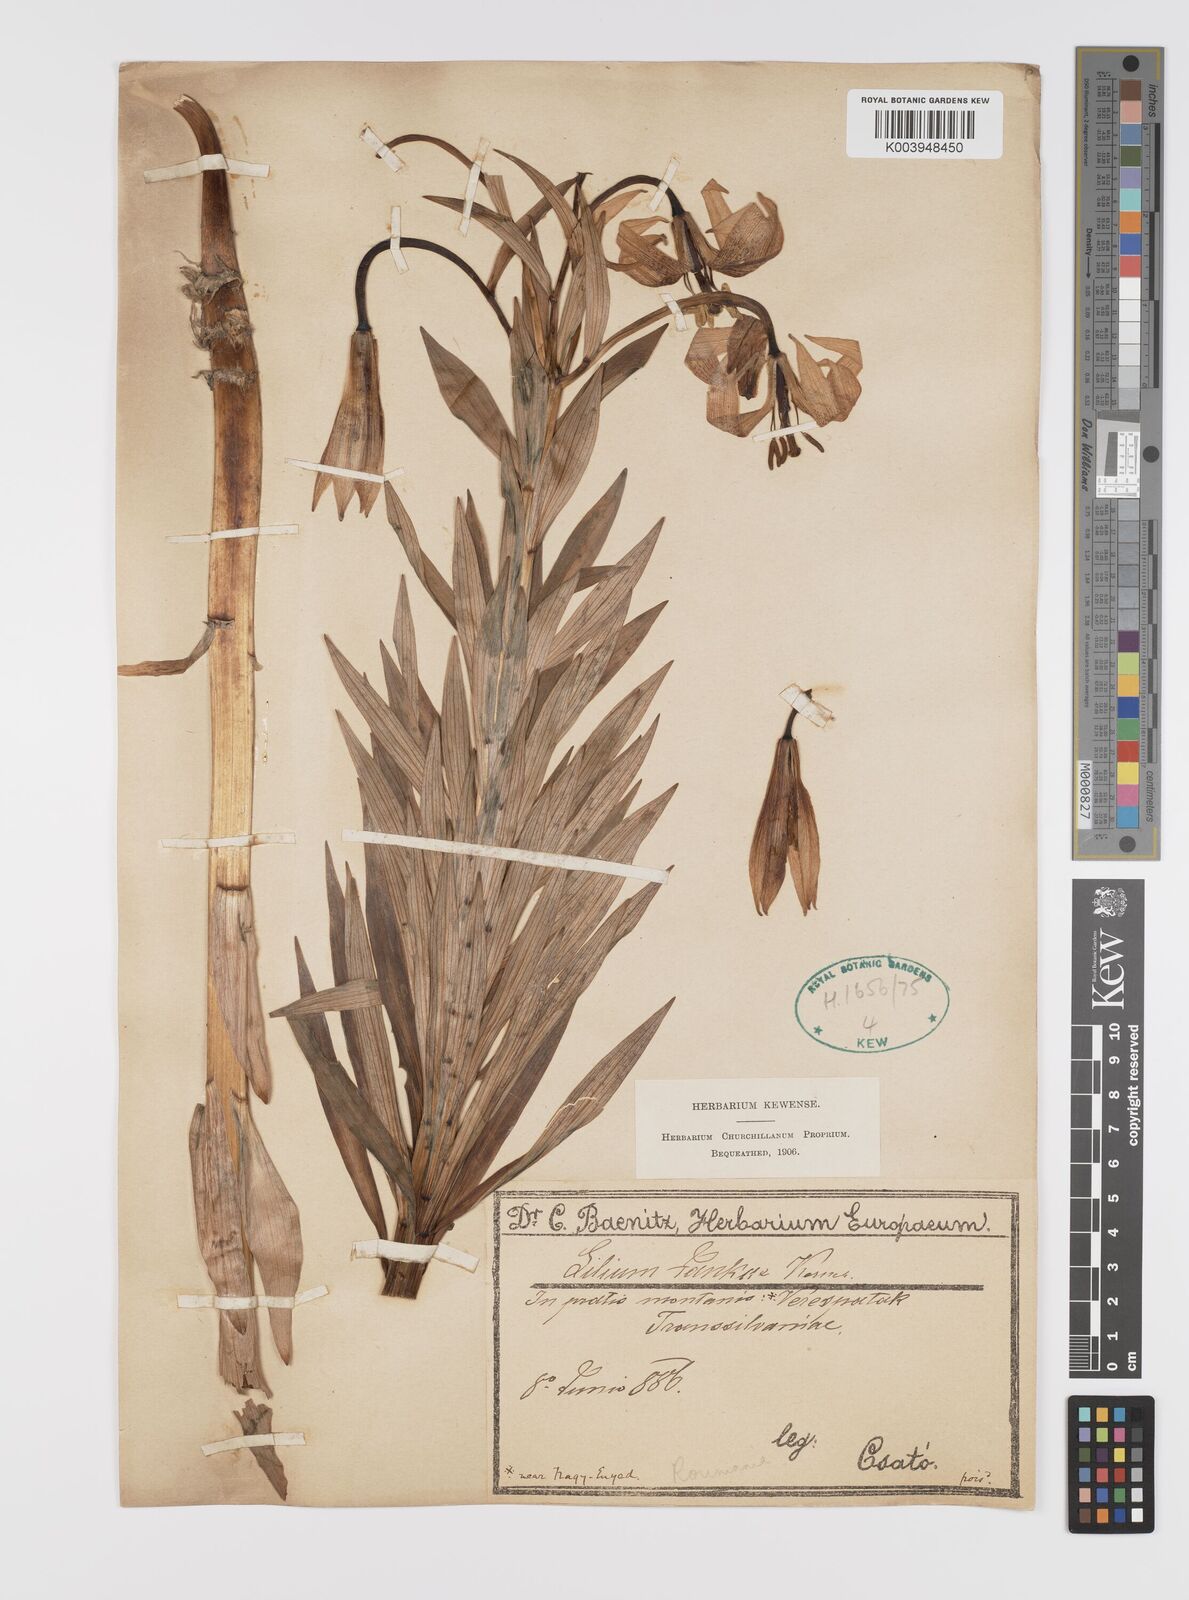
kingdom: Plantae
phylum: Tracheophyta
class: Liliopsida
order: Liliales
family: Liliaceae
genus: Lilium
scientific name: Lilium jankae
